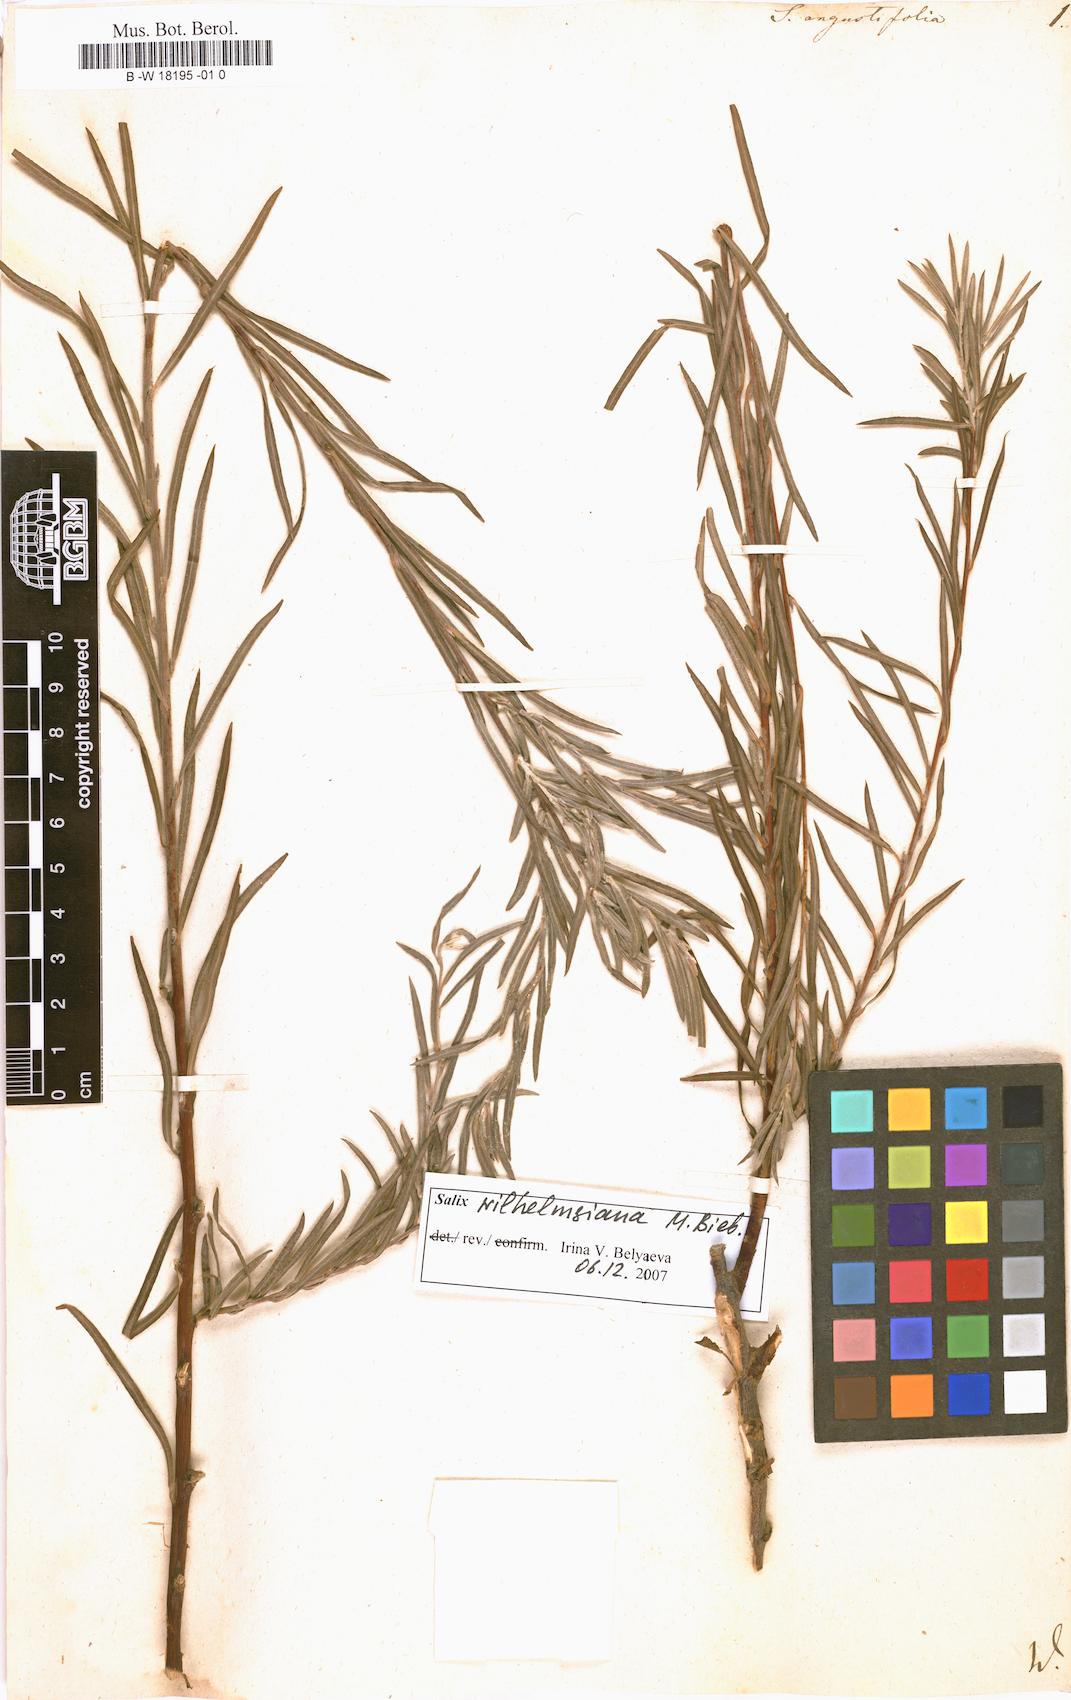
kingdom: Plantae
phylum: Tracheophyta
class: Magnoliopsida
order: Malpighiales
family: Salicaceae
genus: Salix
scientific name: Salix
